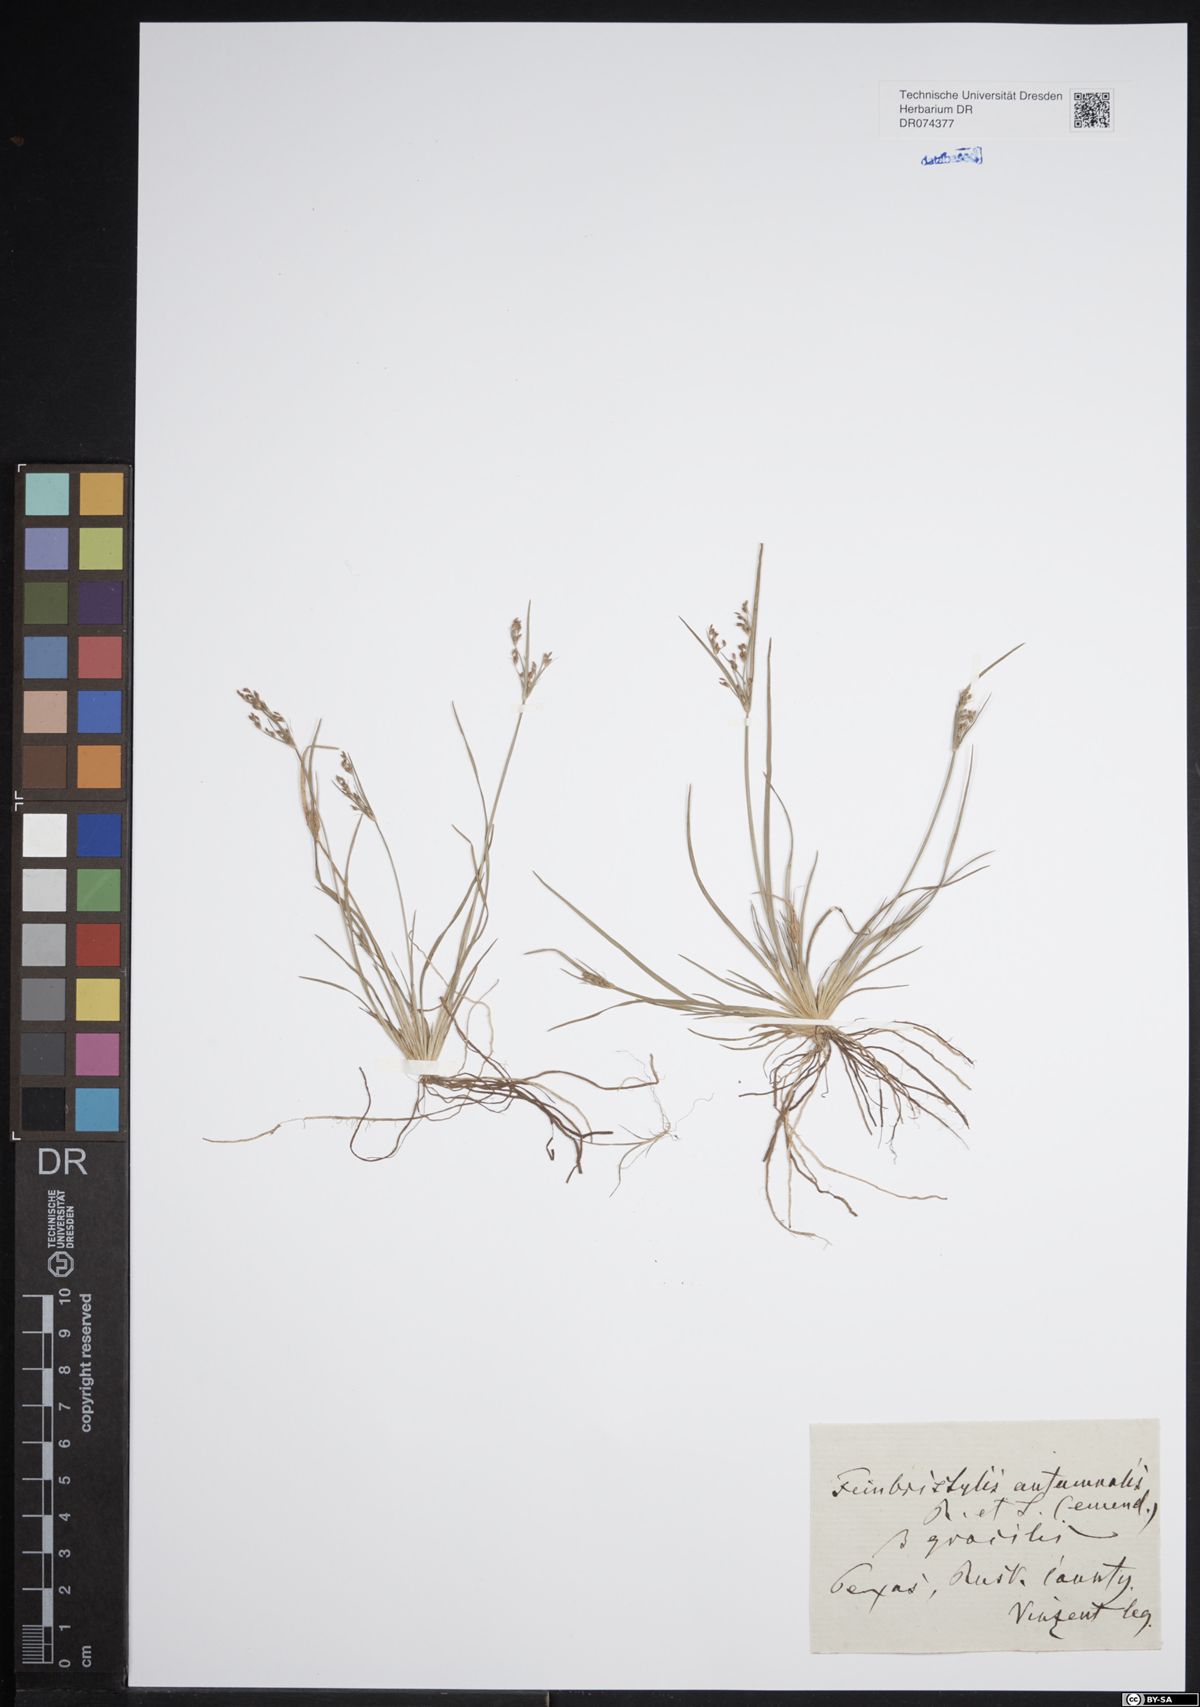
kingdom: Plantae
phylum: Tracheophyta
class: Liliopsida
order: Poales
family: Cyperaceae
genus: Fimbristylis
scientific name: Fimbristylis autumnalis
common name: Slender fimbristylis
